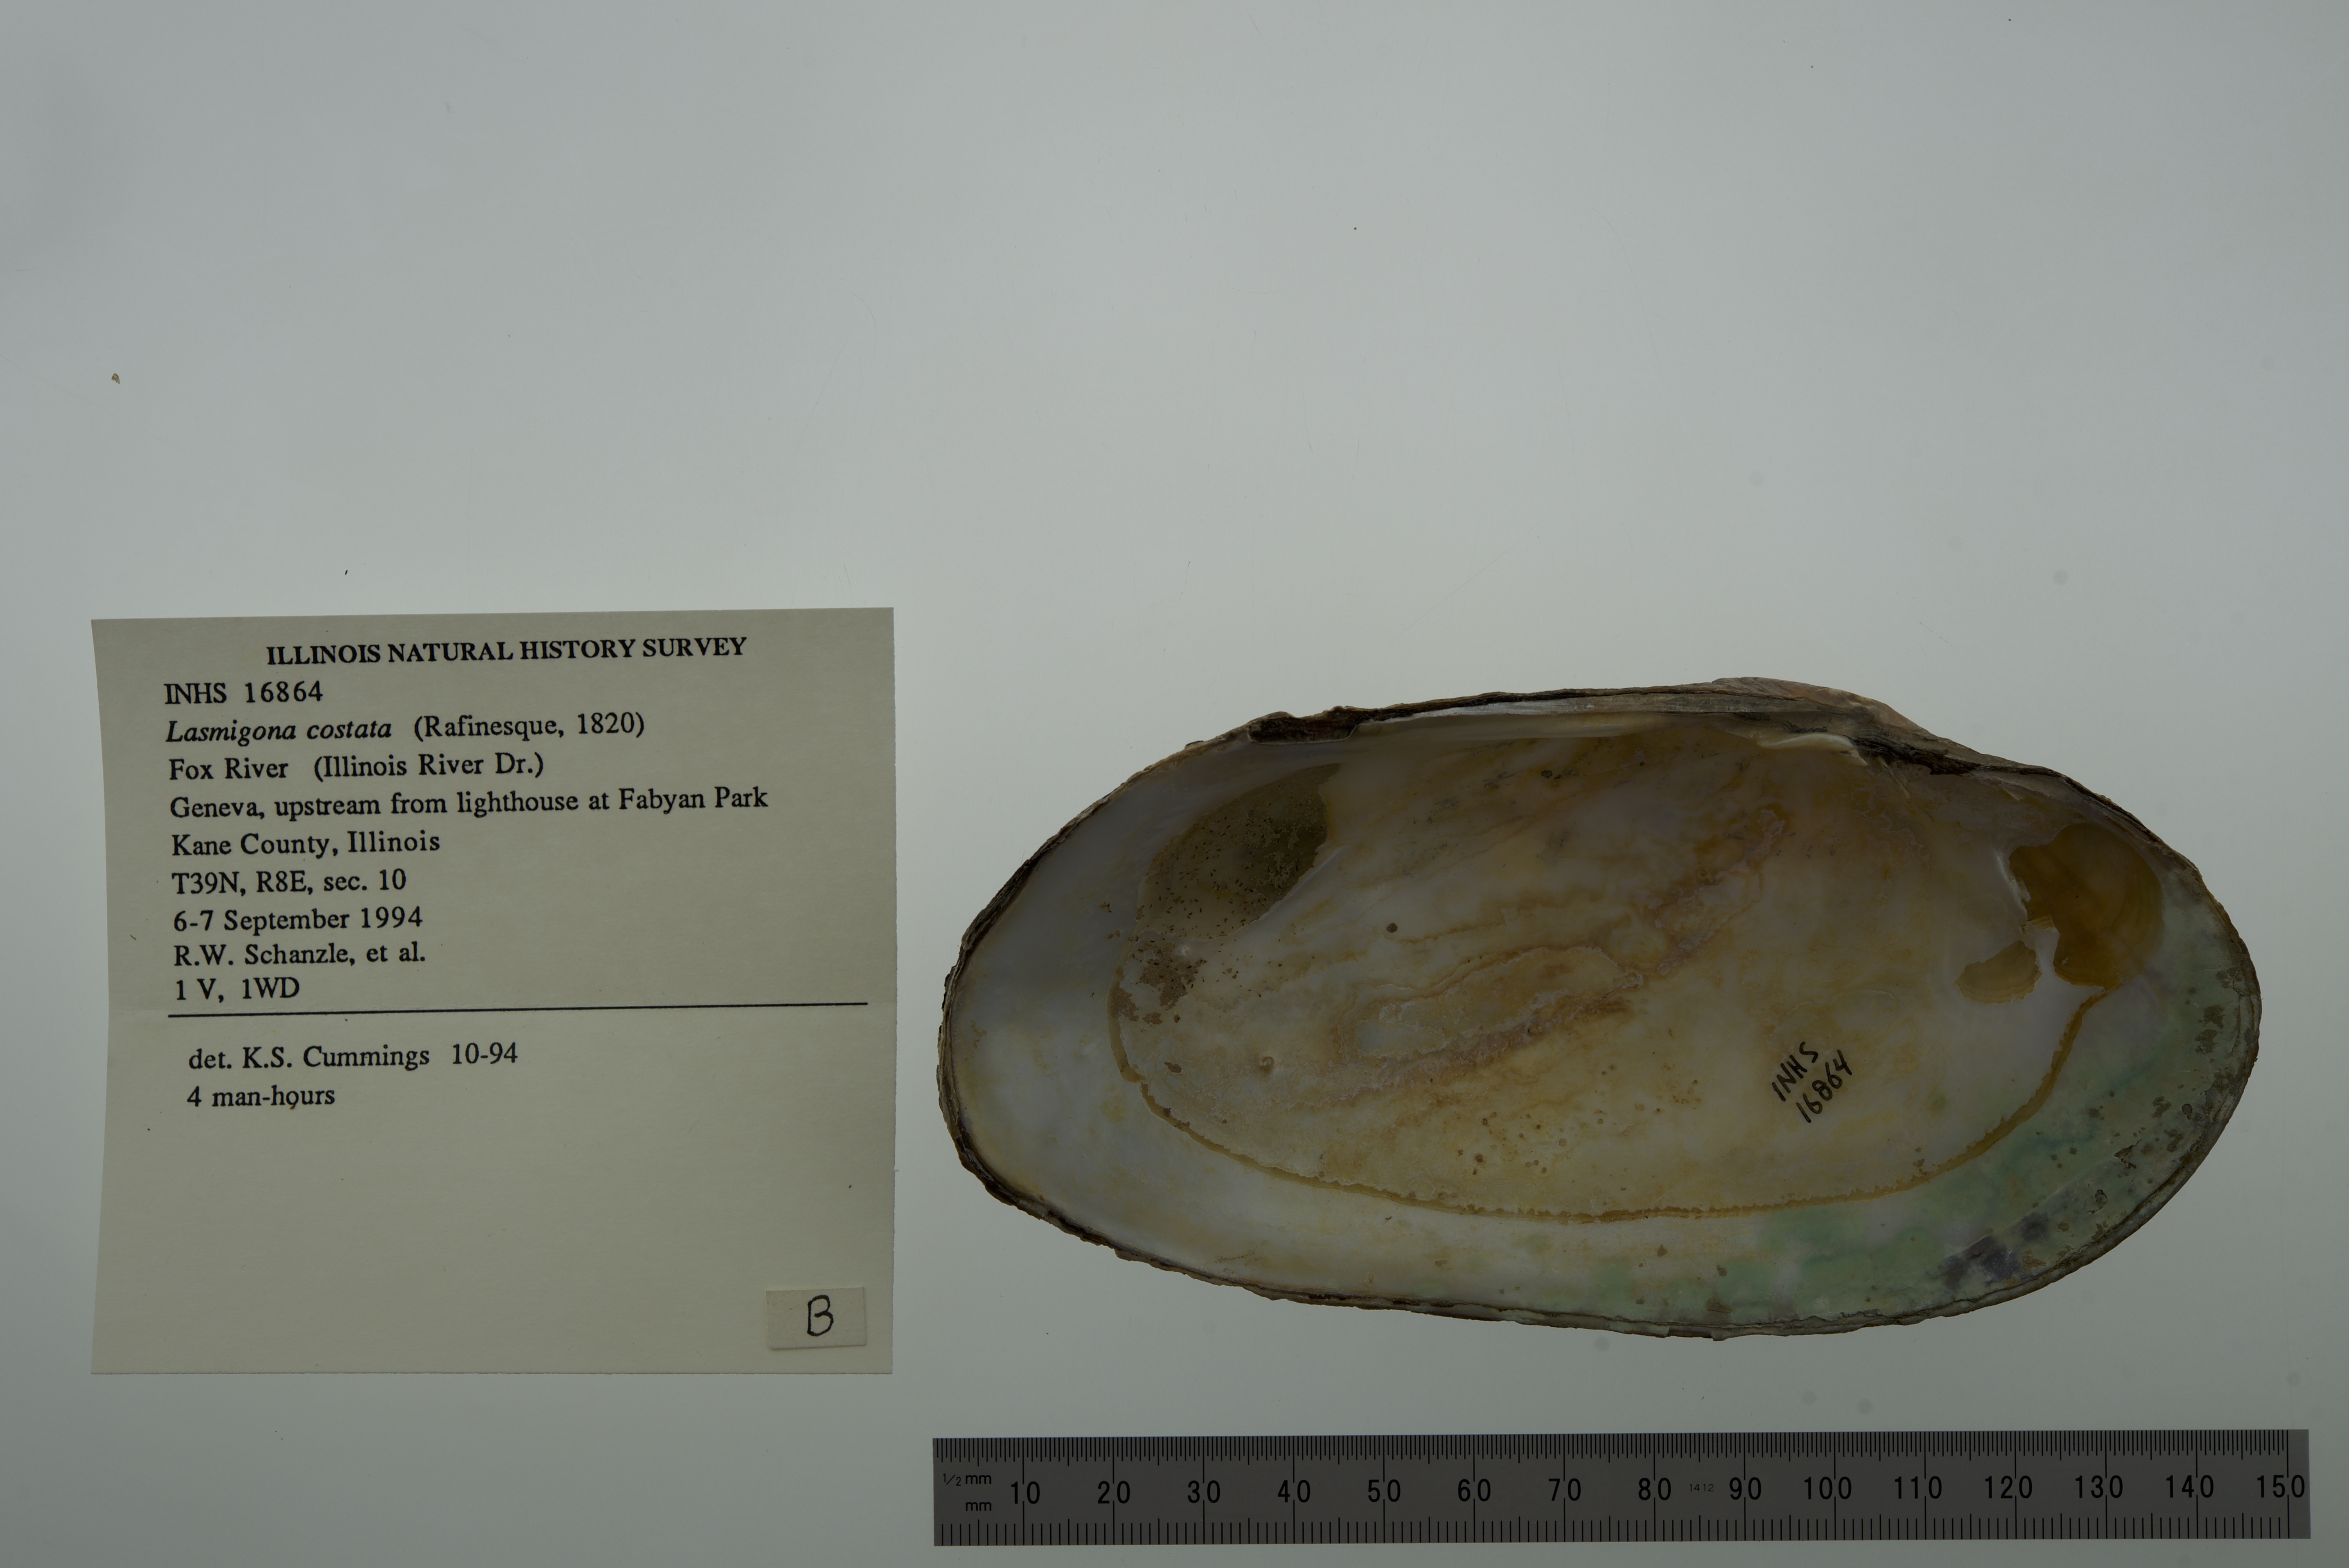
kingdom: Animalia
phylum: Mollusca
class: Bivalvia
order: Unionida
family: Unionidae
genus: Lasmigona
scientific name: Lasmigona costata
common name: Flutedshell
